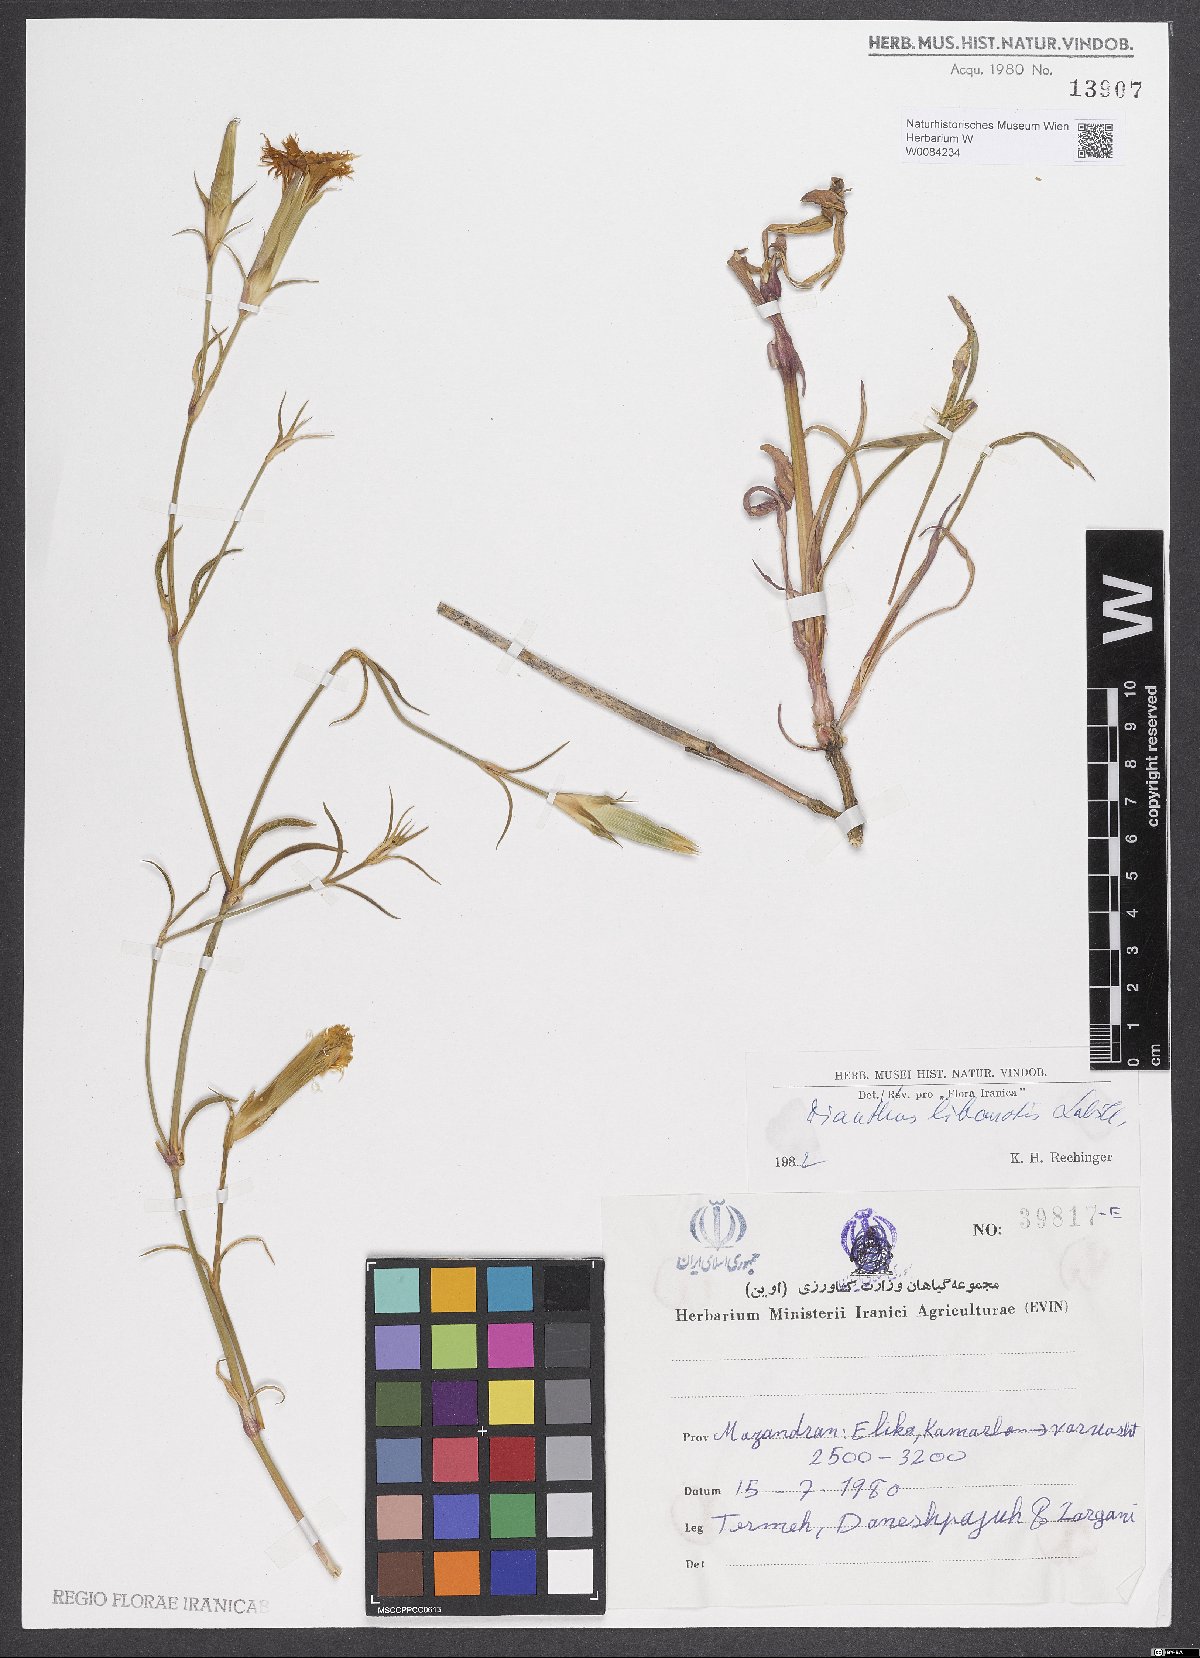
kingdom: Plantae
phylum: Tracheophyta
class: Magnoliopsida
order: Caryophyllales
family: Caryophyllaceae
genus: Dianthus
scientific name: Dianthus libanotis
